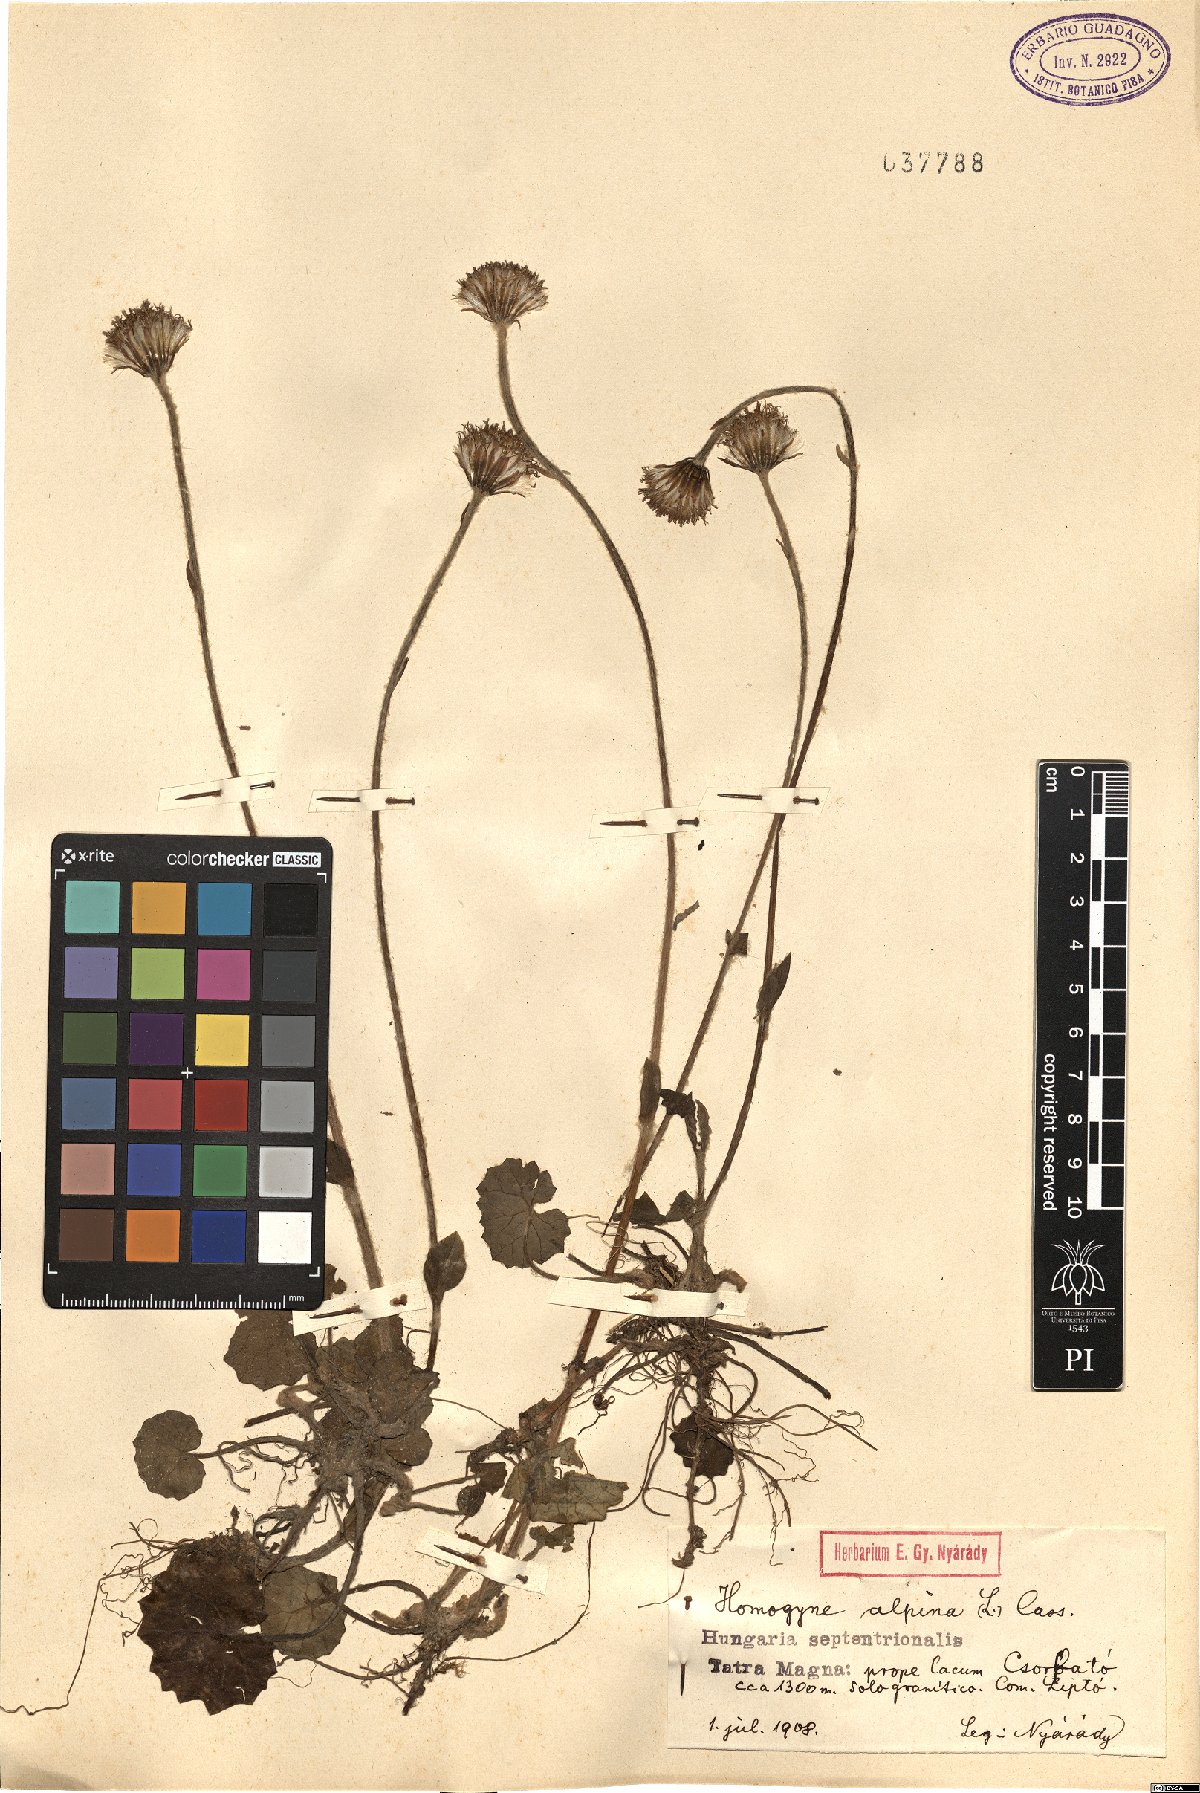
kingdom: Plantae
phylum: Tracheophyta
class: Magnoliopsida
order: Asterales
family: Asteraceae
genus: Homogyne
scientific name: Homogyne alpina
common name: Purple colt's-foot
